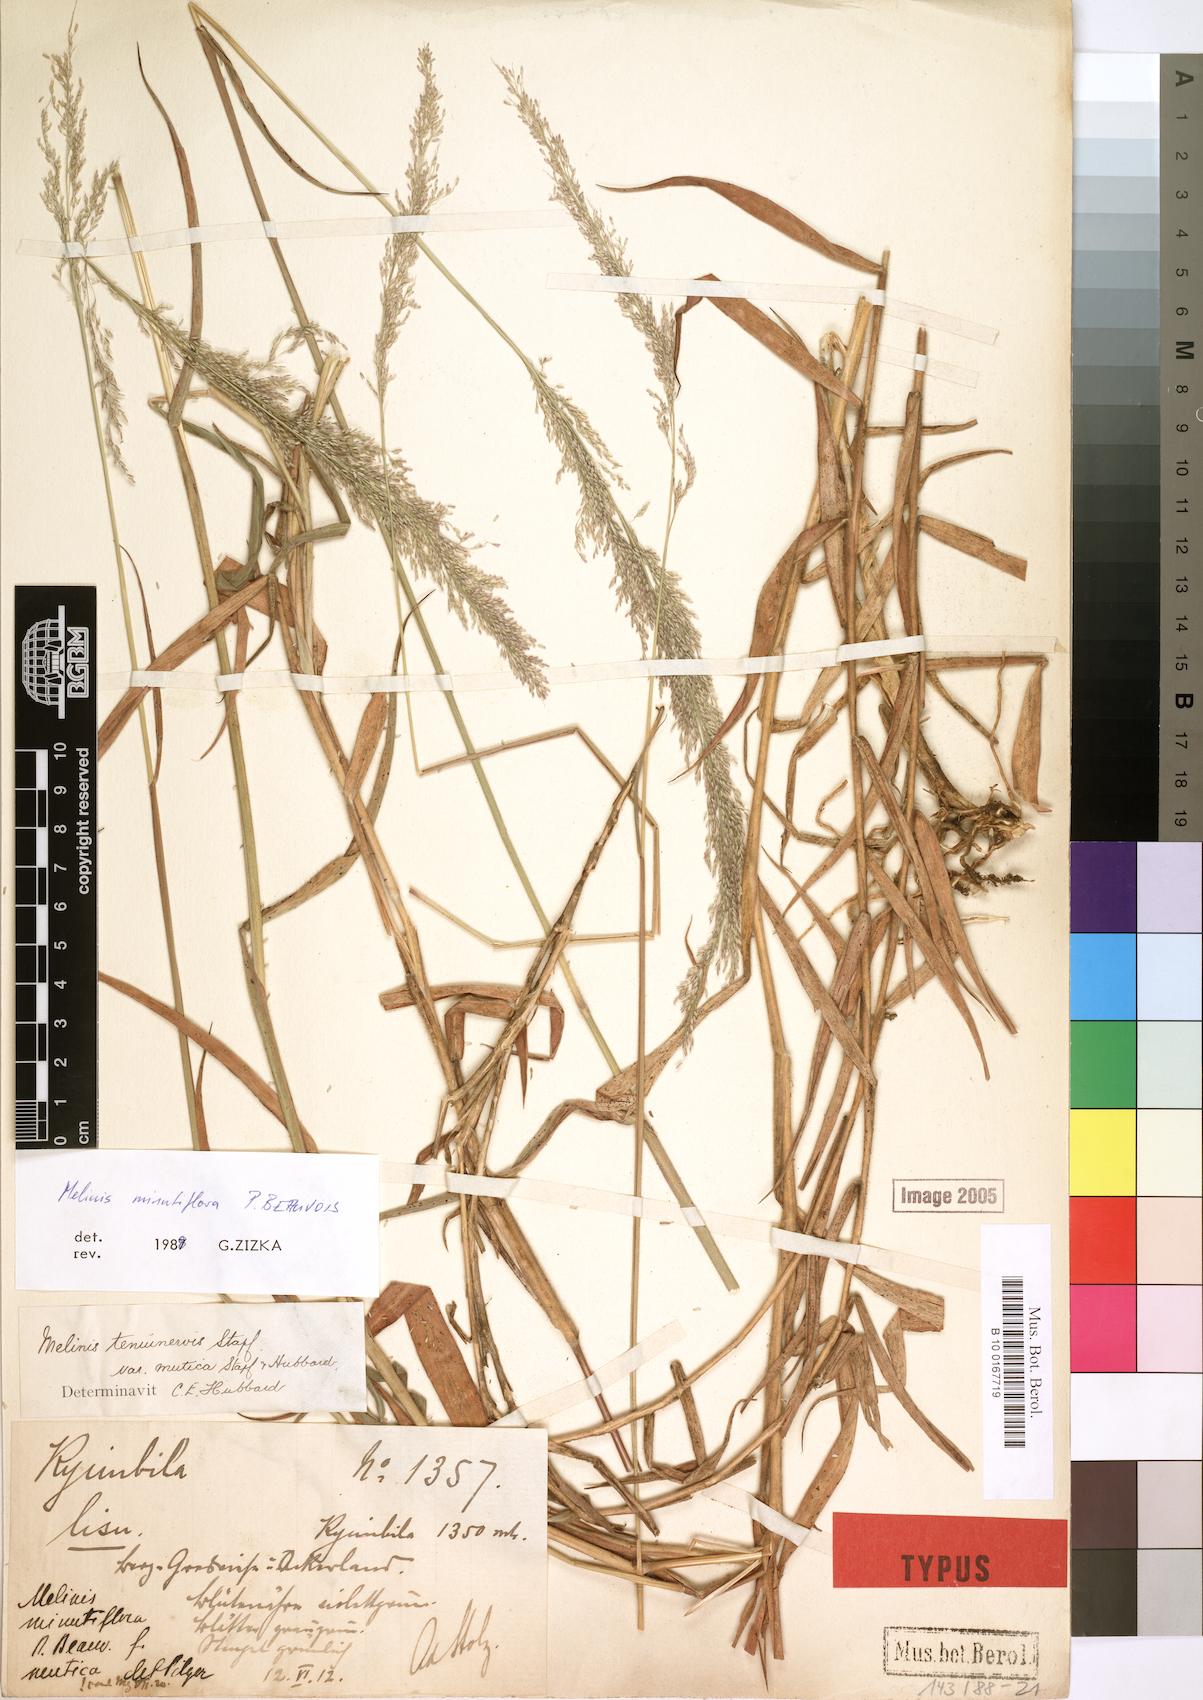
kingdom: Plantae
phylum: Tracheophyta
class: Liliopsida
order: Poales
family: Poaceae
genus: Melinis
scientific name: Melinis minutiflora
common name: Molassesgrass
